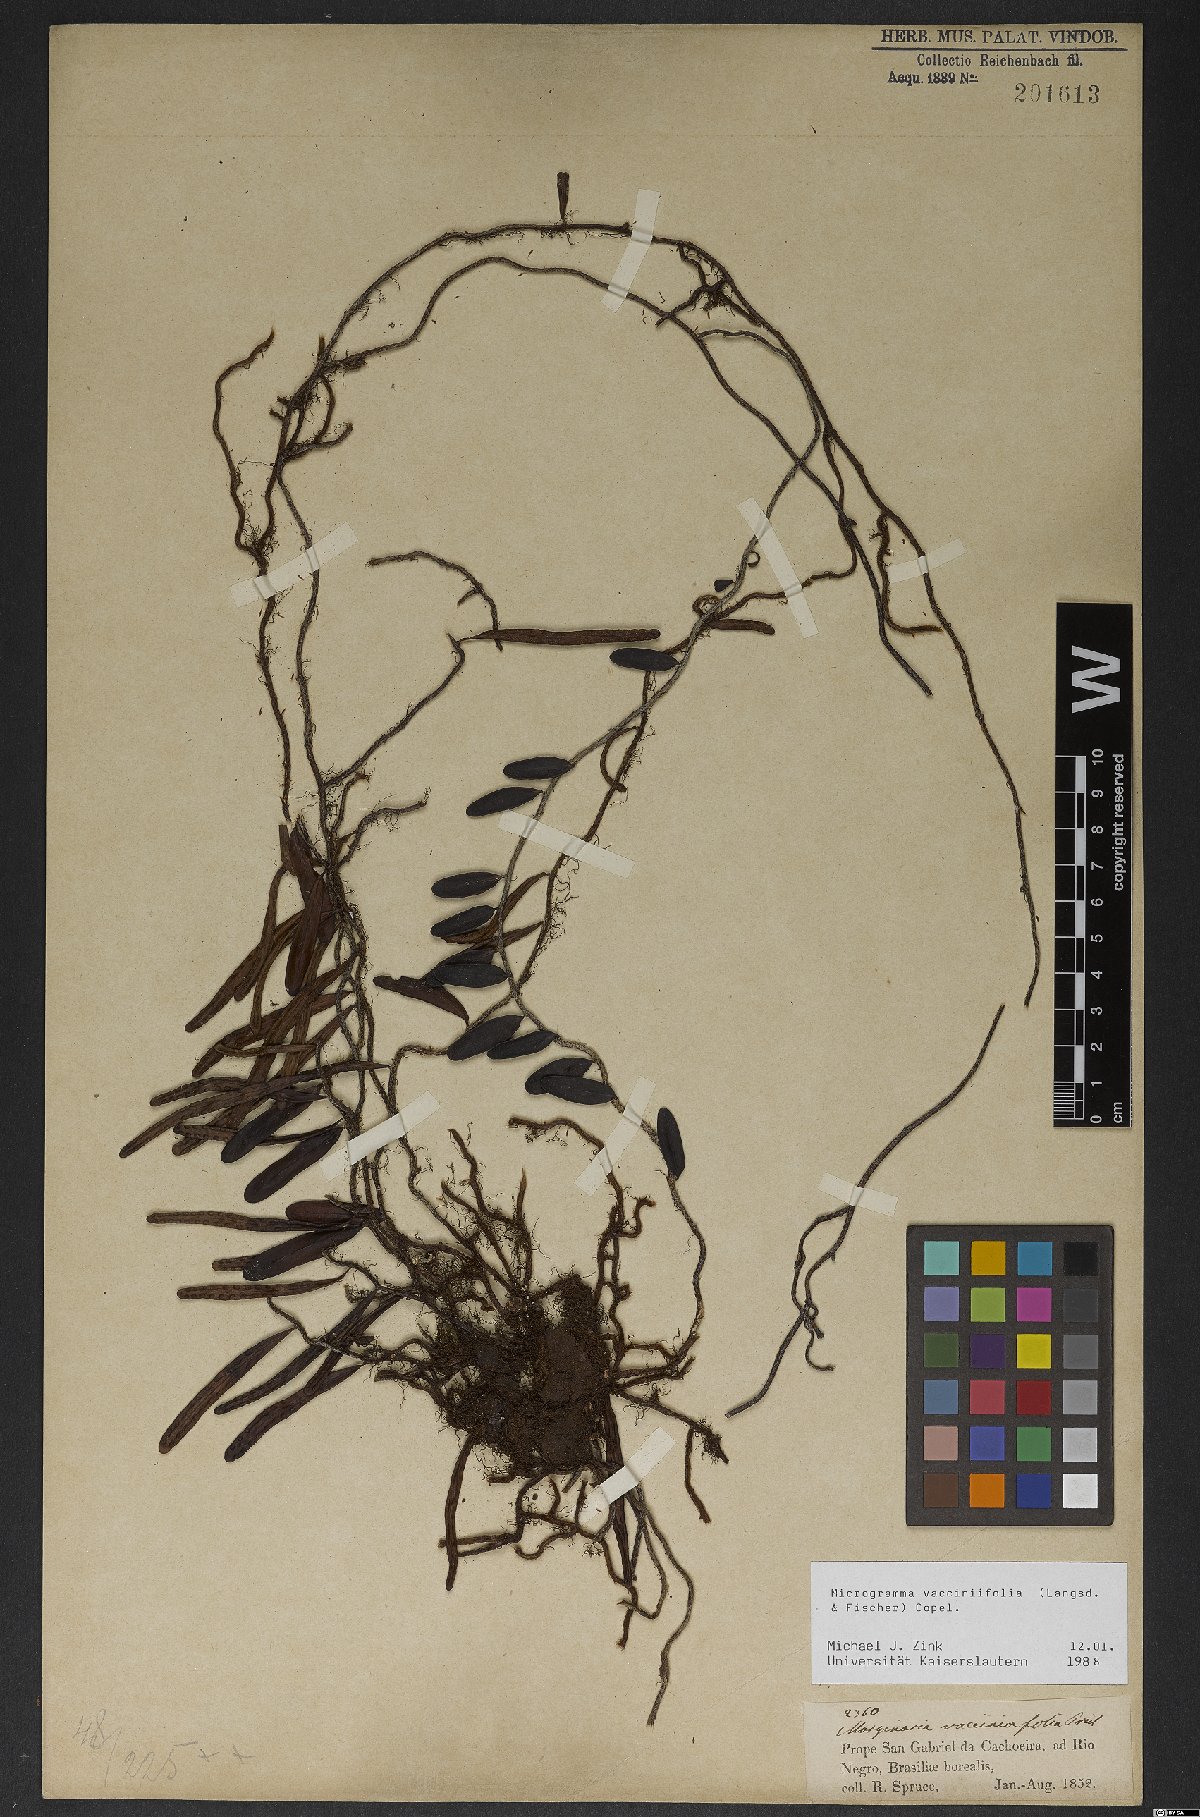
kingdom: Plantae
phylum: Tracheophyta
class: Polypodiopsida
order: Polypodiales
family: Polypodiaceae
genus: Microgramma
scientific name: Microgramma vaccinifolia
